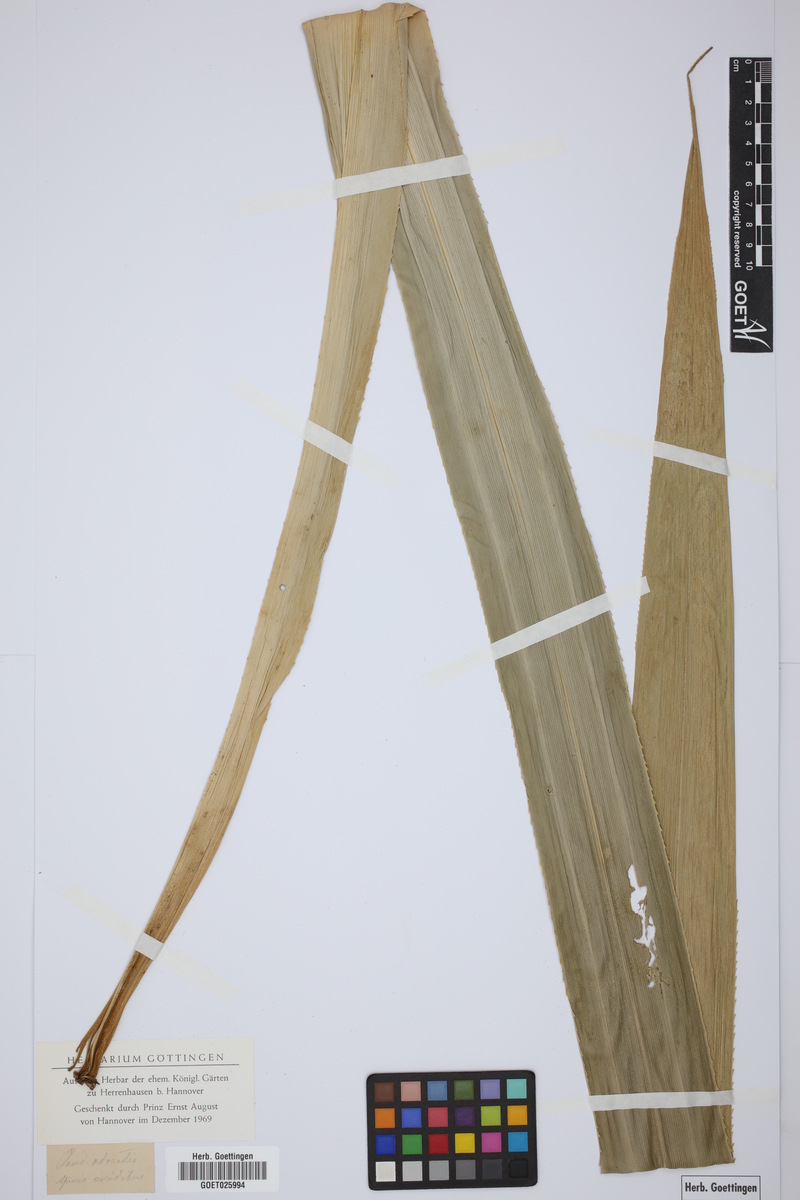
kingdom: Plantae
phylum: Tracheophyta
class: Liliopsida
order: Pandanales
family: Pandanaceae
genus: Pandanus
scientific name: Pandanus odorifer
